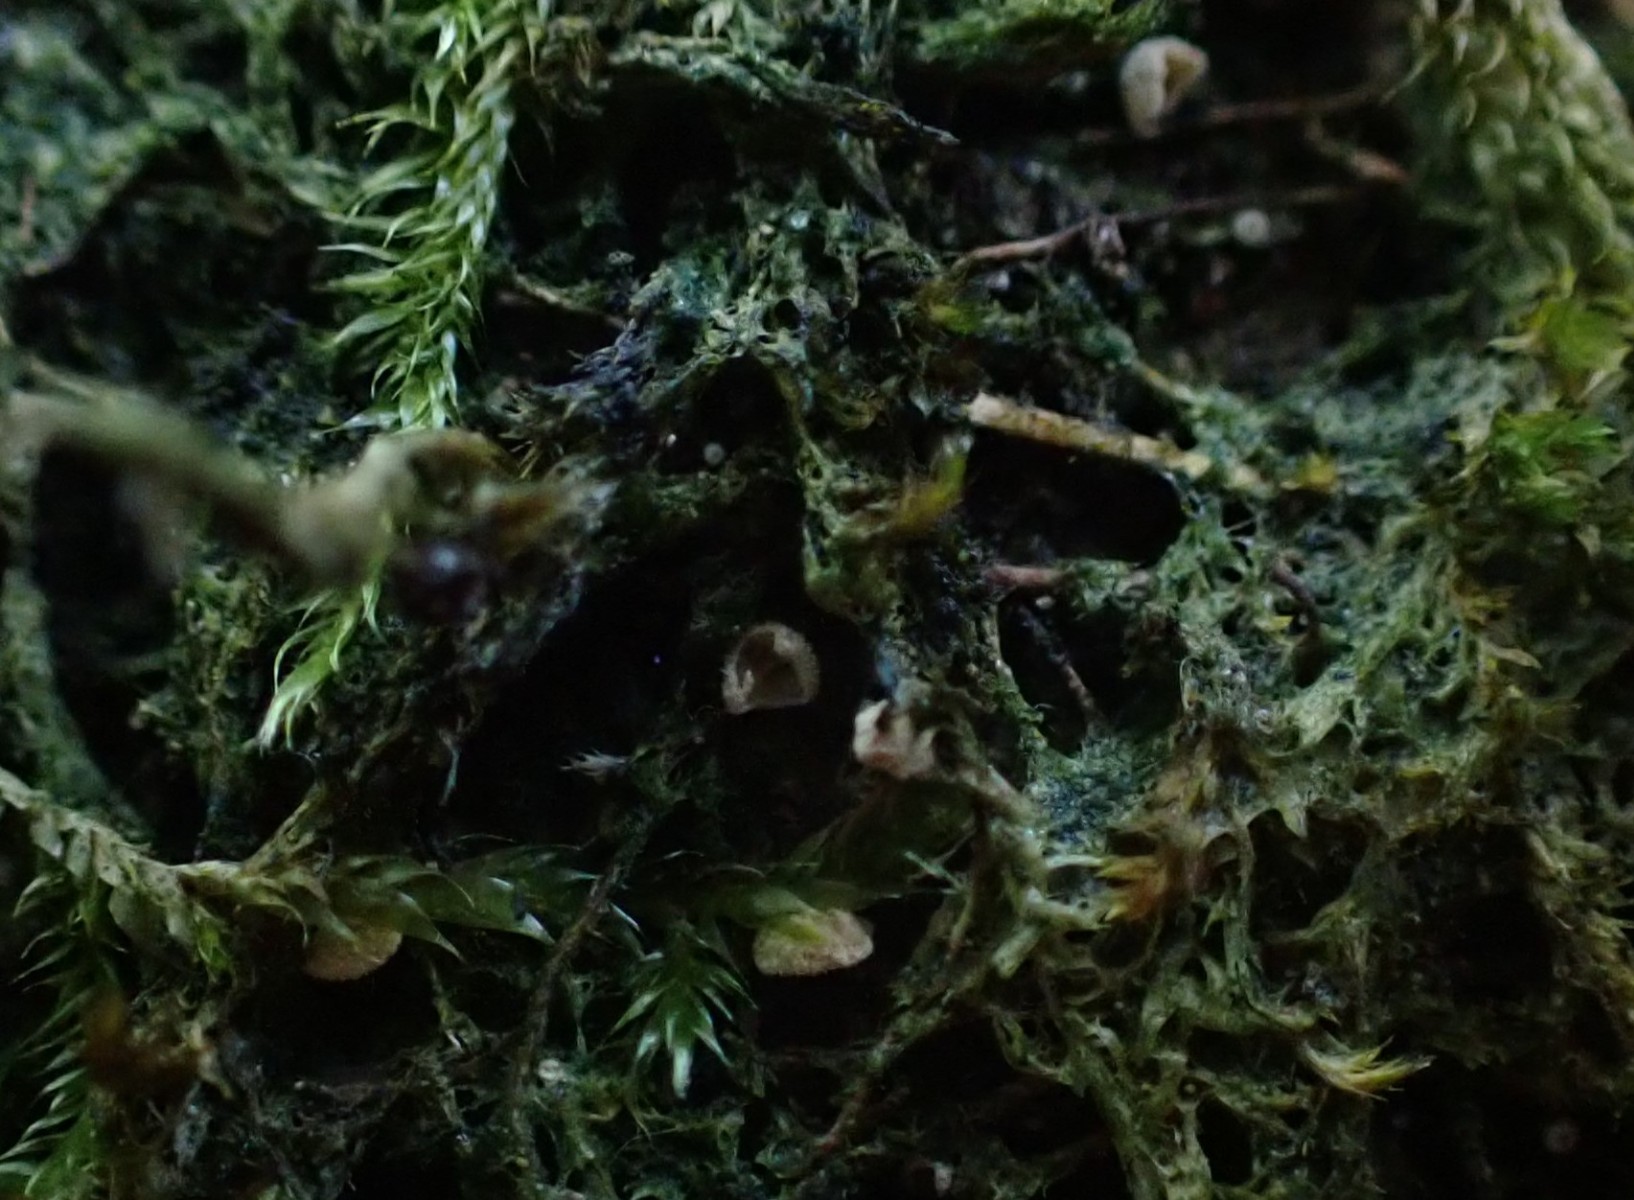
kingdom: Fungi
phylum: Basidiomycota
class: Agaricomycetes
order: Agaricales
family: Chromocyphellaceae
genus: Chromocyphella
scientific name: Chromocyphella muscicola
